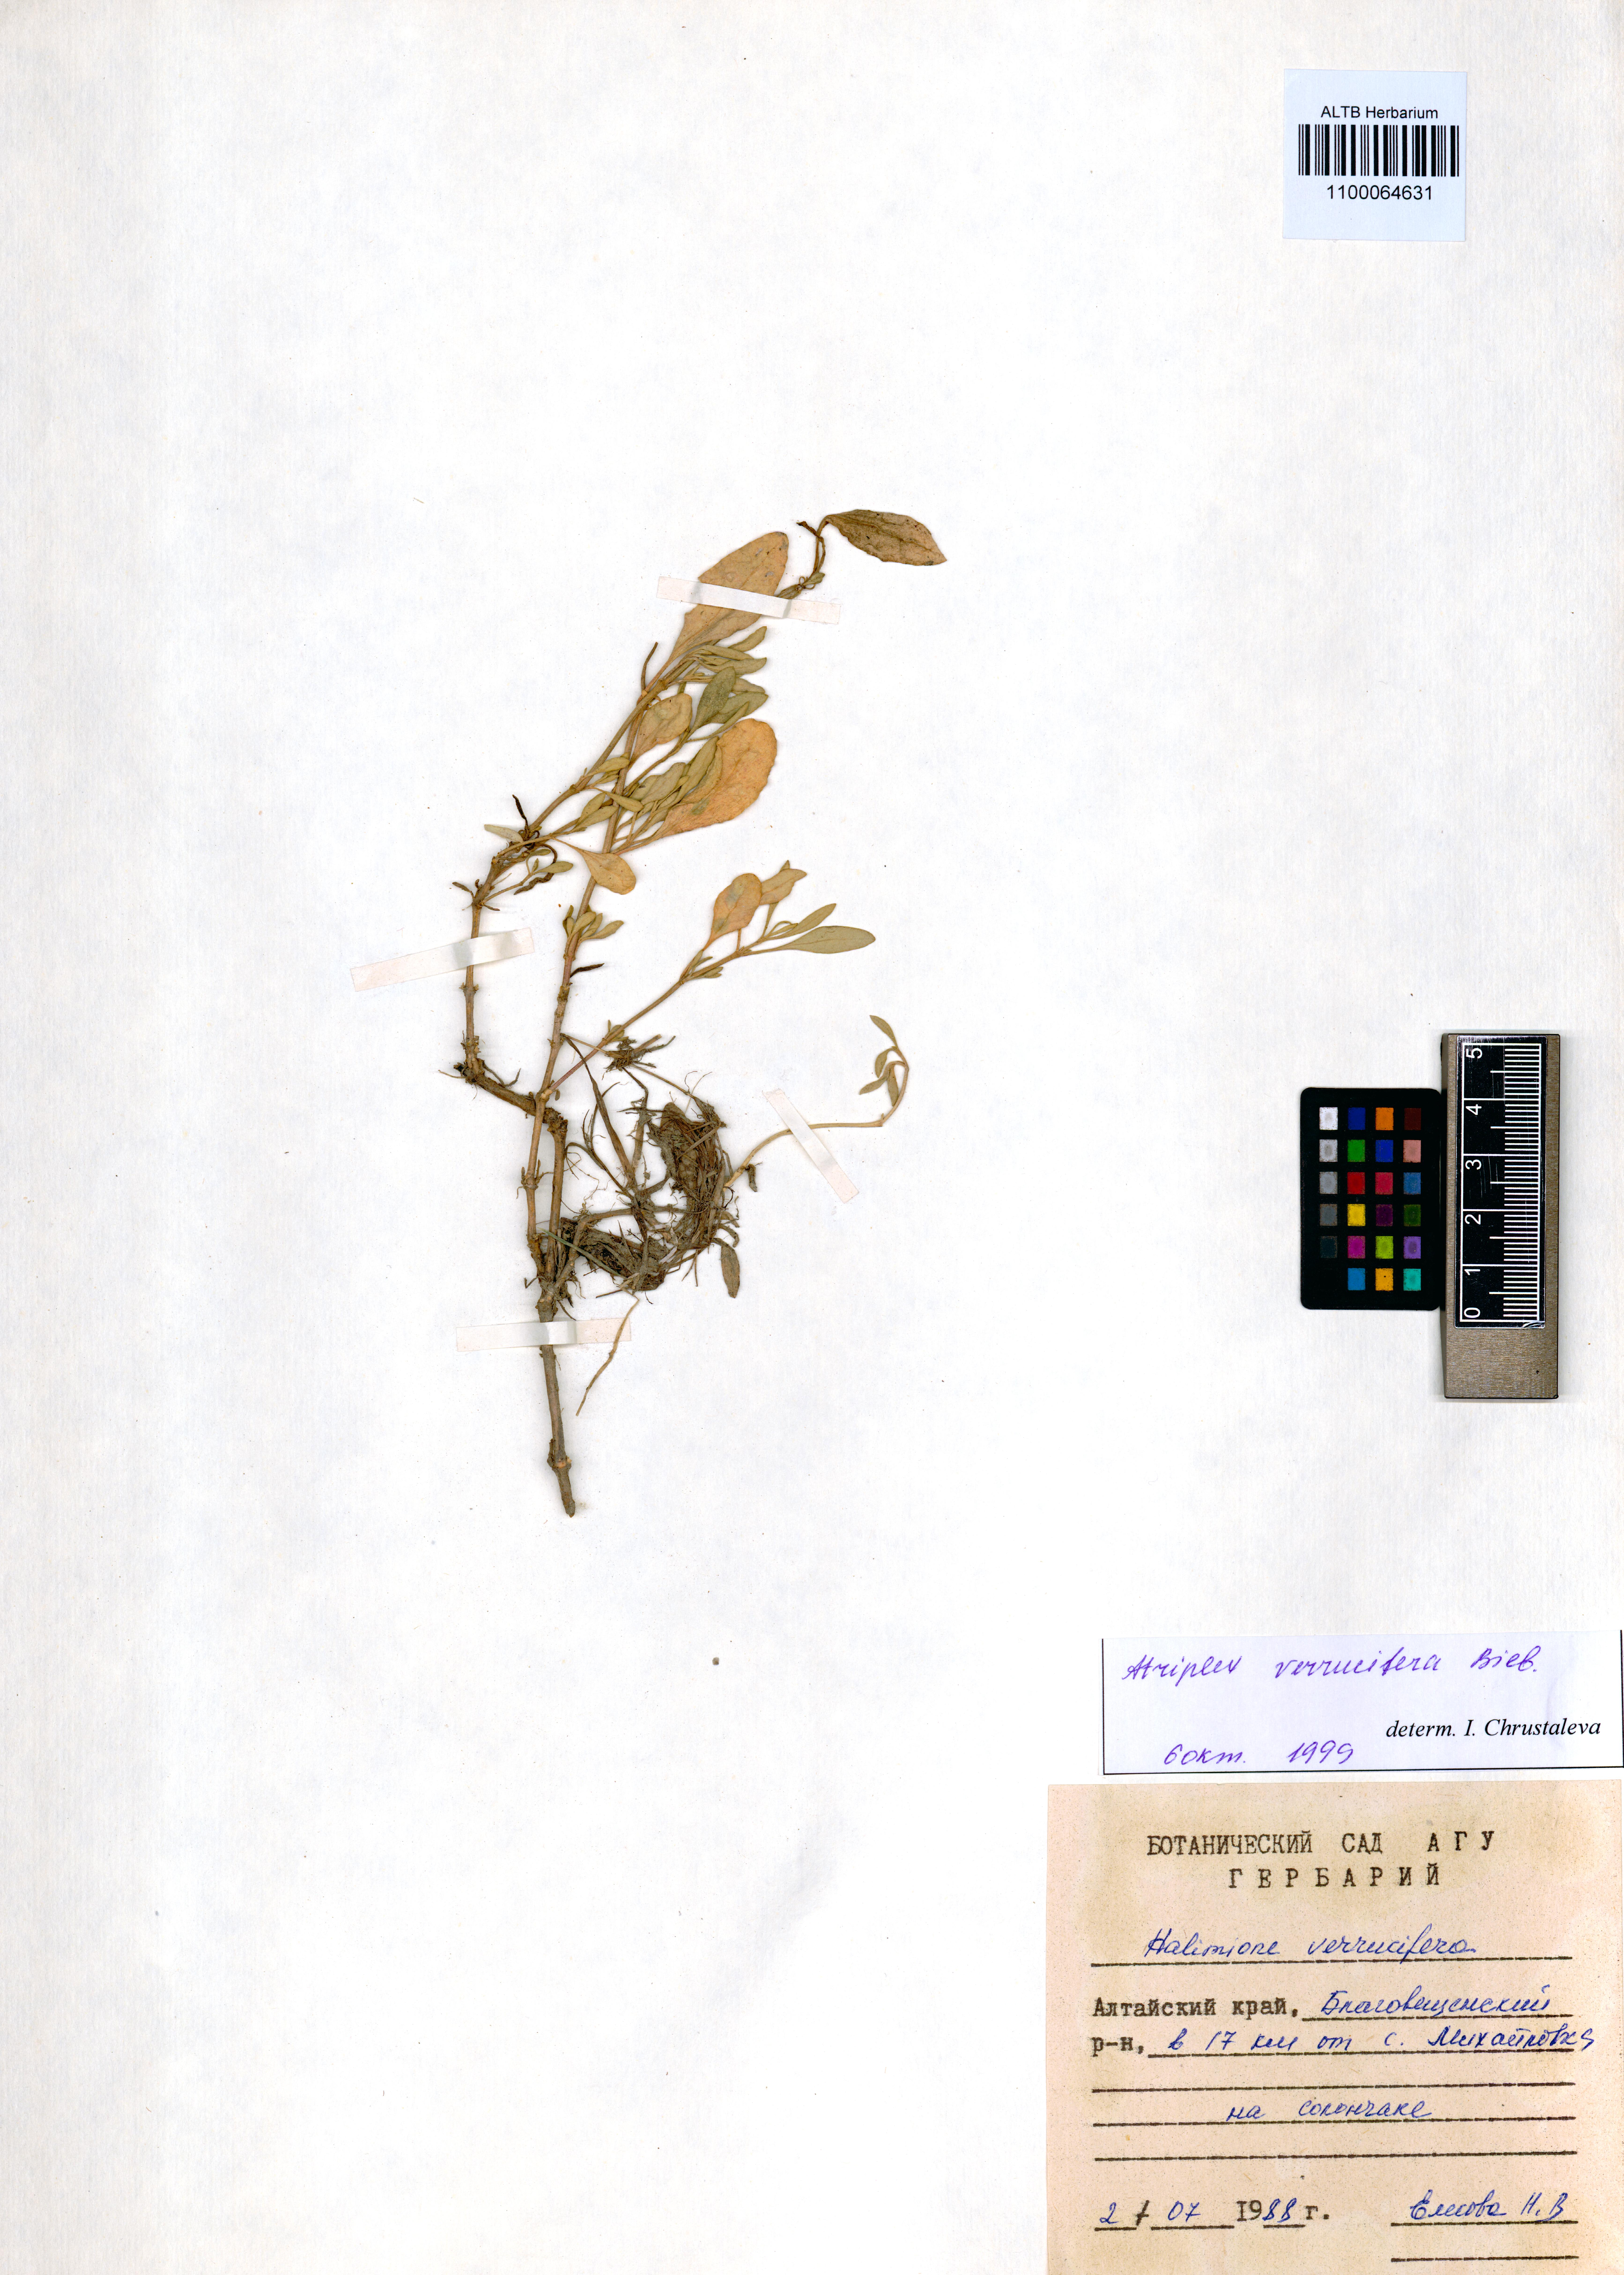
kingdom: Plantae
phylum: Tracheophyta
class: Magnoliopsida
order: Caryophyllales
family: Amaranthaceae
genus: Halimione
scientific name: Halimione verrucifera
